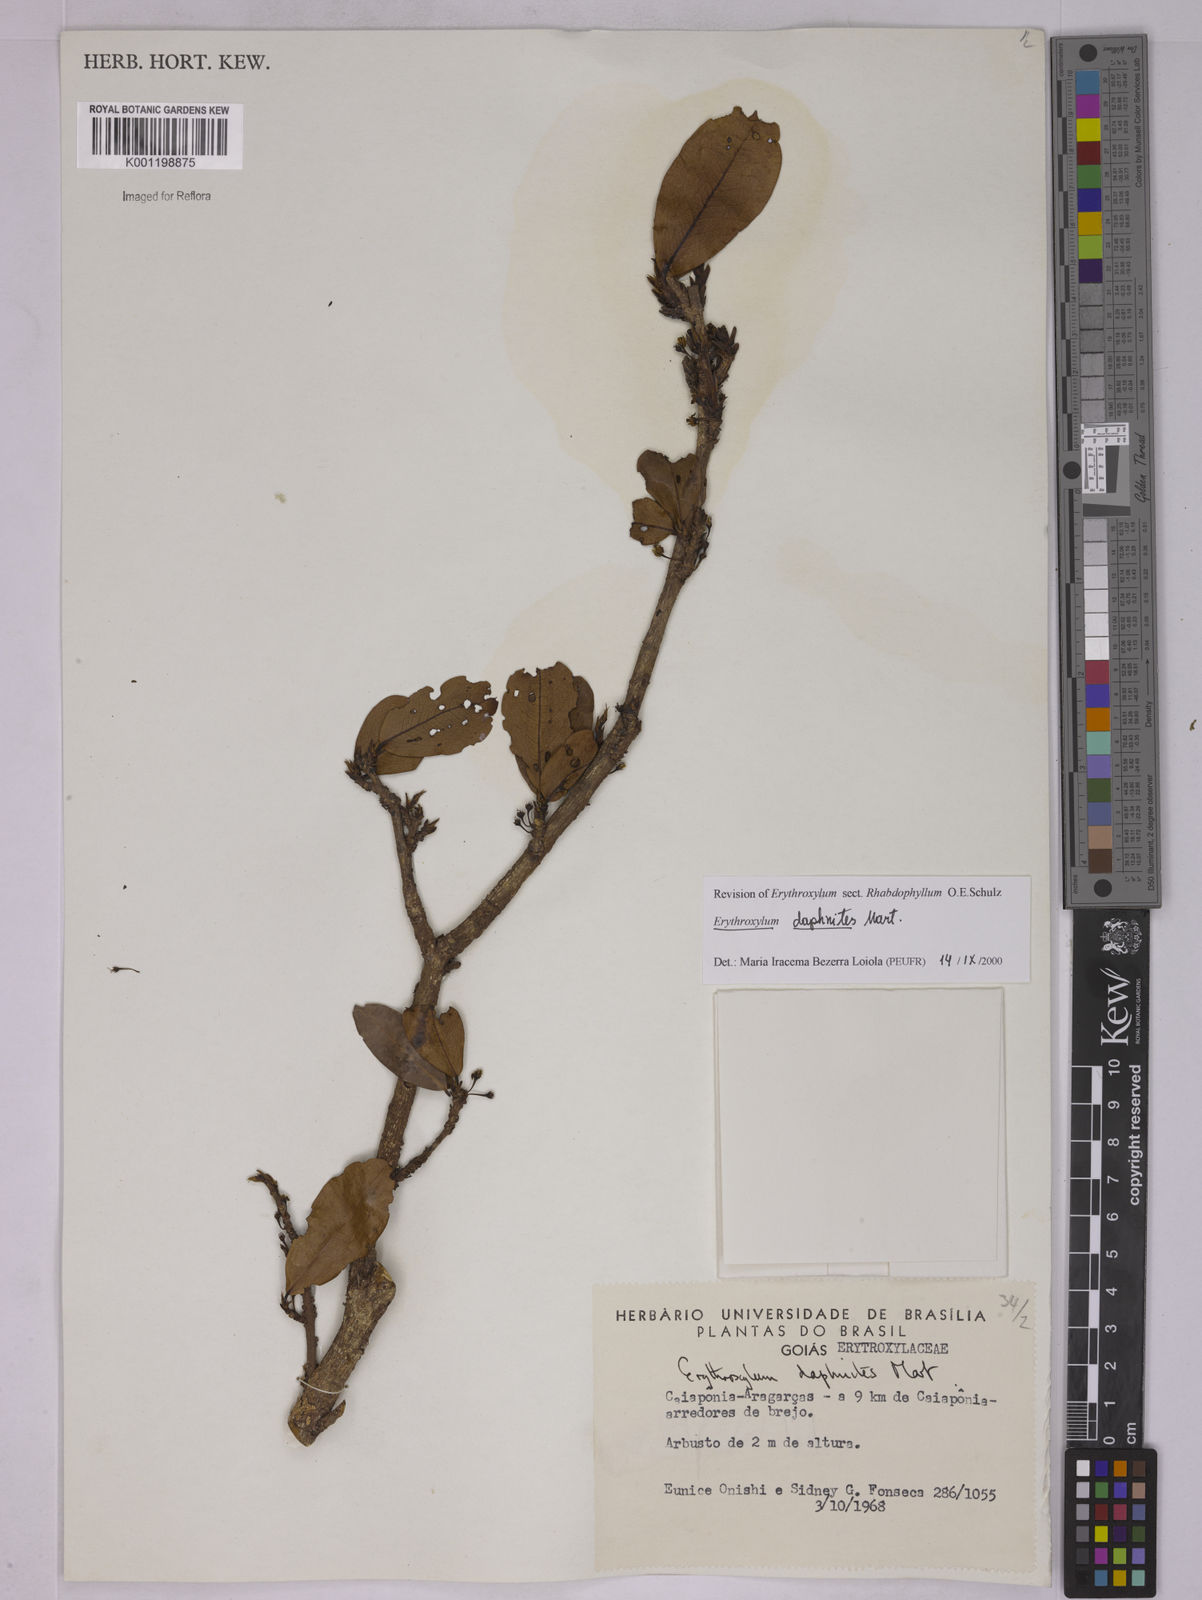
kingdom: Plantae
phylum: Tracheophyta
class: Magnoliopsida
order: Malpighiales
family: Erythroxylaceae
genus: Erythroxylum
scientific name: Erythroxylum daphnites
